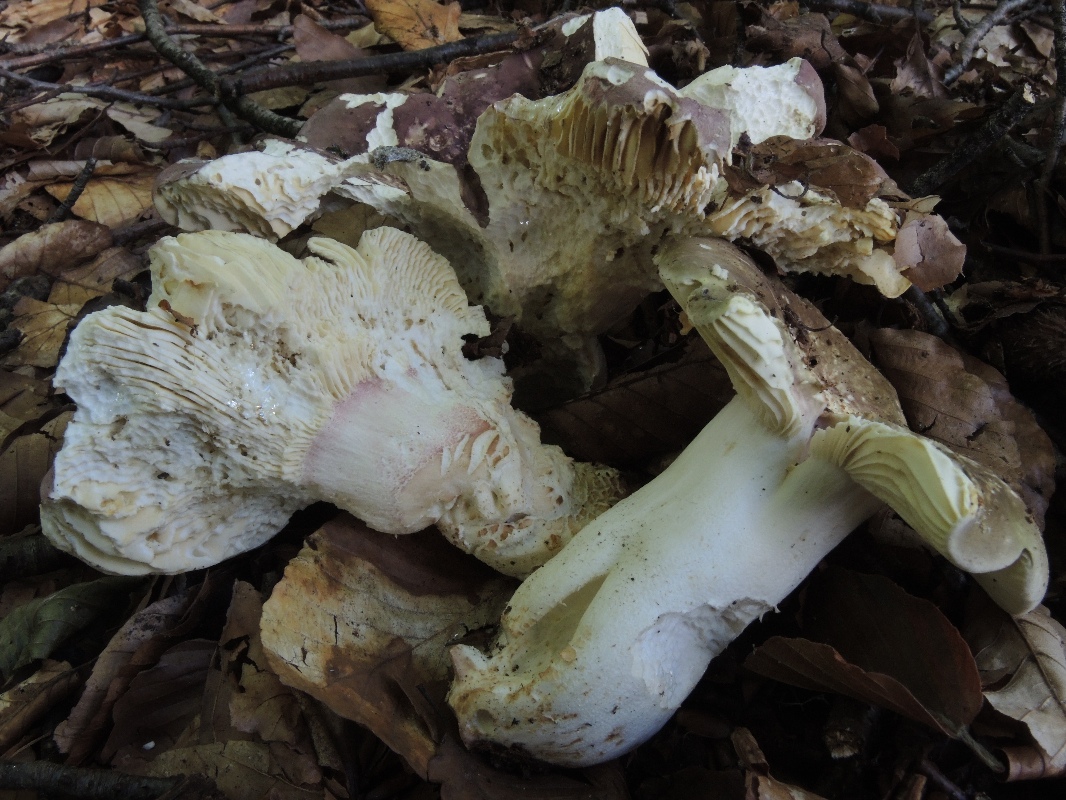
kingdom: Fungi
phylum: Basidiomycota
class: Agaricomycetes
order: Russulales
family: Russulaceae
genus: Russula
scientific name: Russula olivacea
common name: stor skørhat
